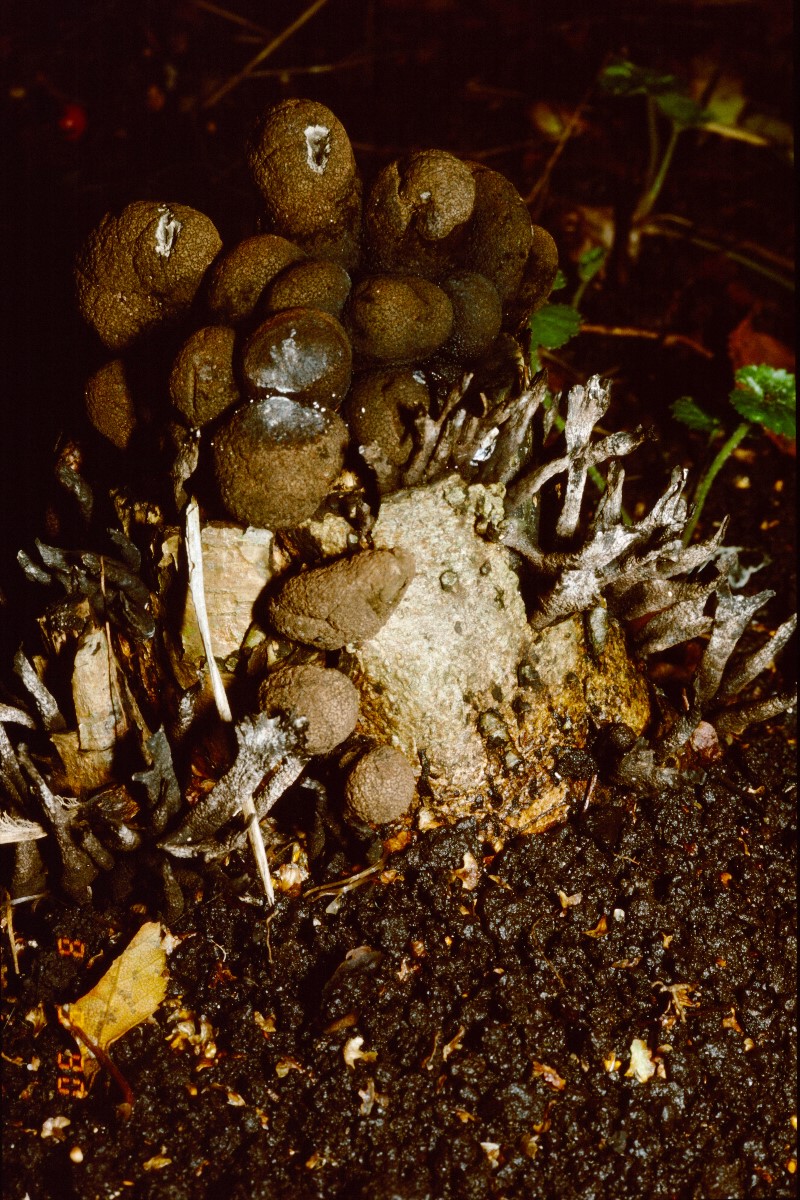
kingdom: Fungi
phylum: Ascomycota
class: Sordariomycetes
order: Xylariales
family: Xylariaceae
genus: Xylaria
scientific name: Xylaria polymorpha
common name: kølle-stødsvamp
